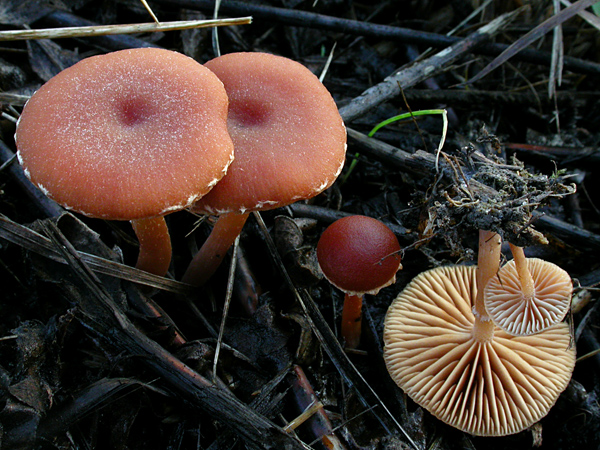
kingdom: Fungi
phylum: Basidiomycota
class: Agaricomycetes
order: Agaricales
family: Tubariaceae
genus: Tubaria
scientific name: Tubaria furfuracea
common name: kliddet fnughat
